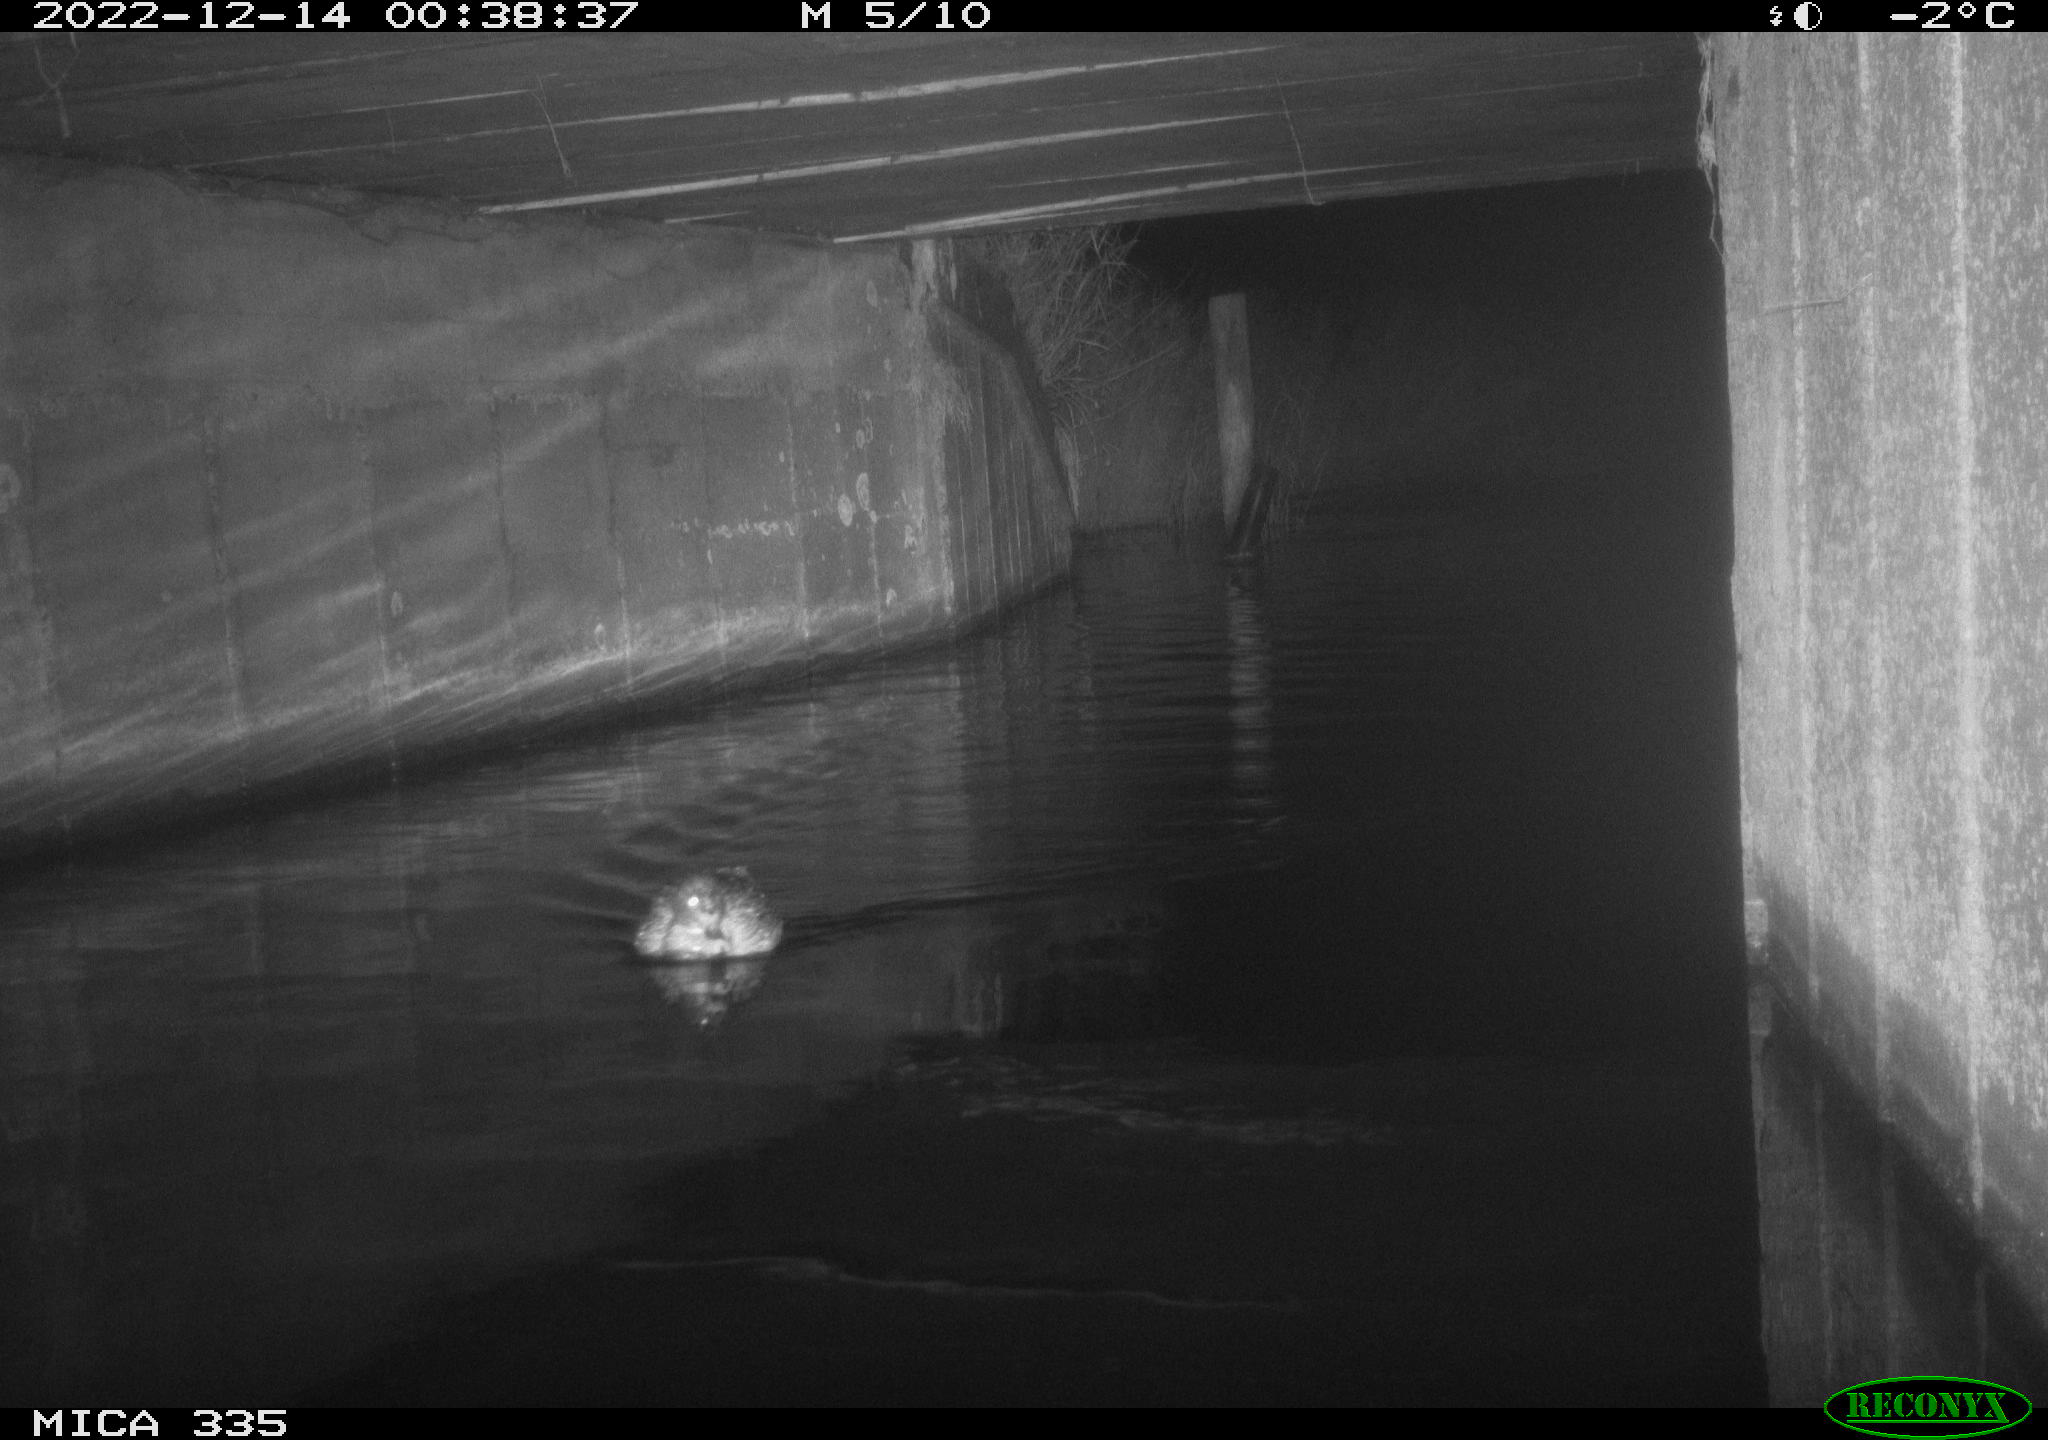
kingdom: Animalia
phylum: Chordata
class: Aves
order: Anseriformes
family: Anatidae
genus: Anas
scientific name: Anas
